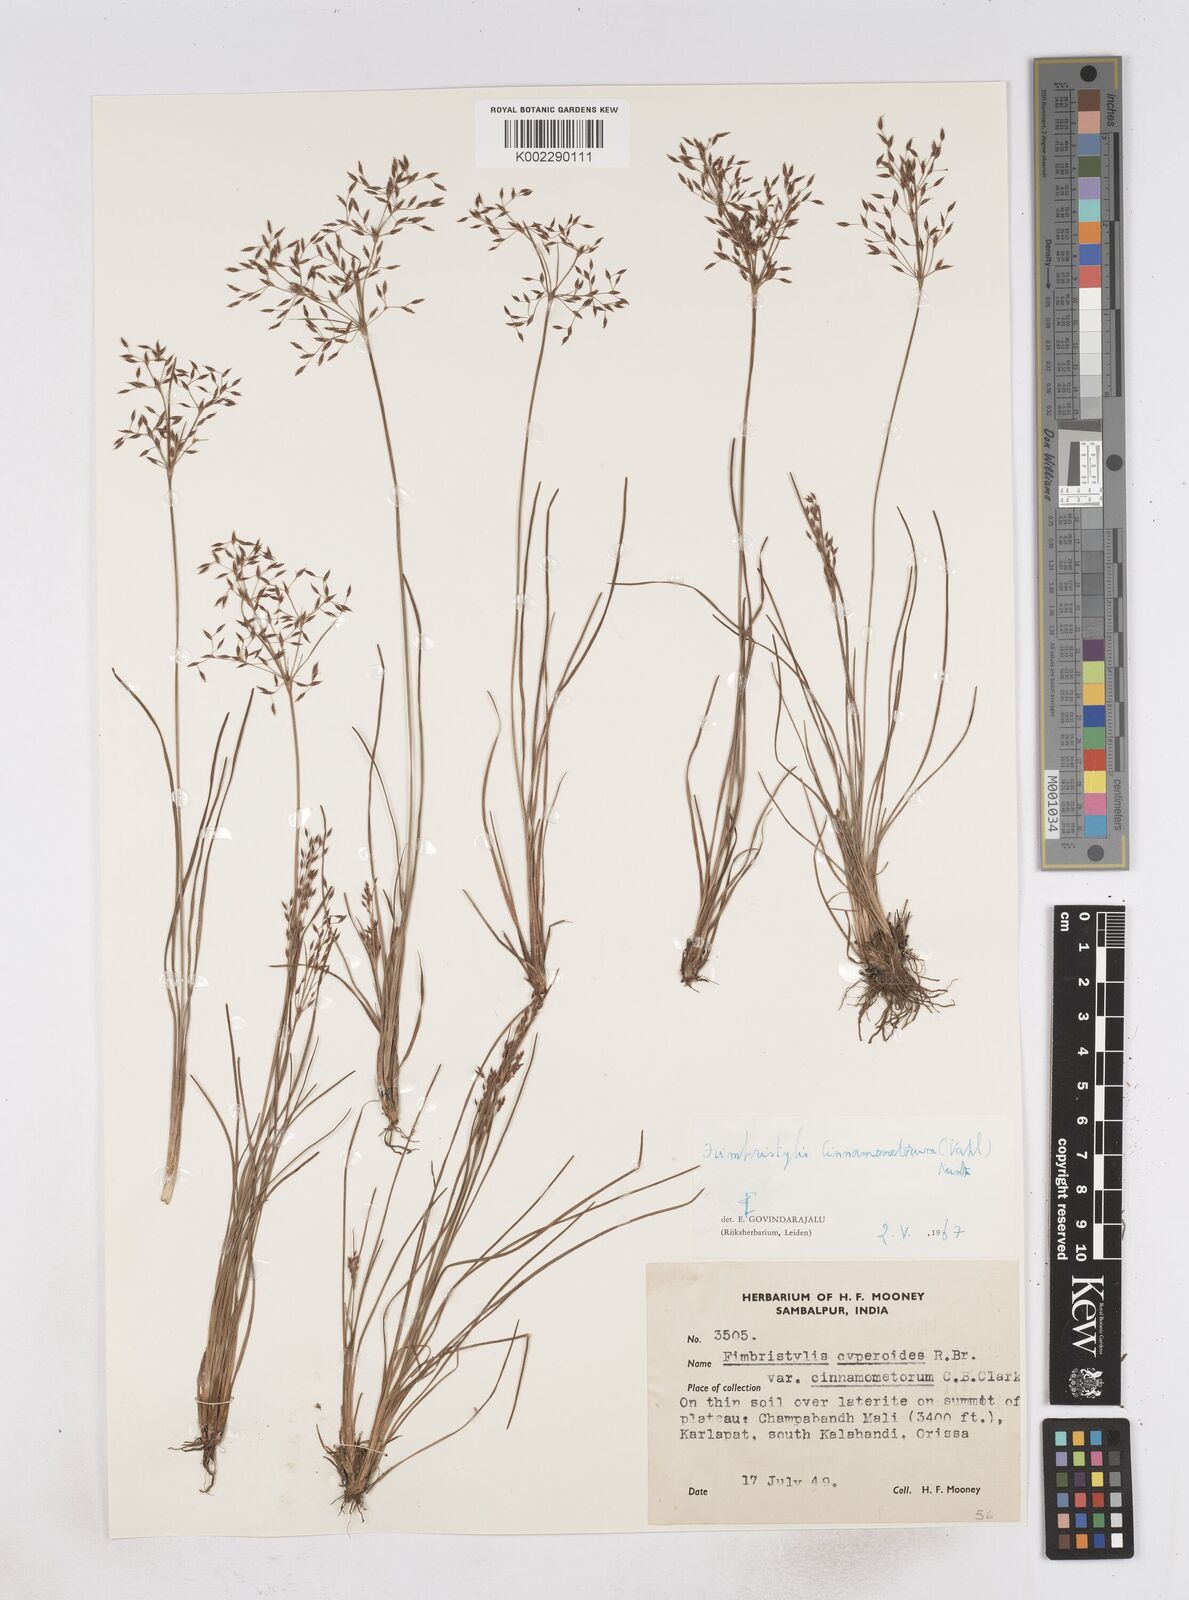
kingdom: Plantae
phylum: Tracheophyta
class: Liliopsida
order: Poales
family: Cyperaceae
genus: Fimbristylis
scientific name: Fimbristylis cinnamometorum
